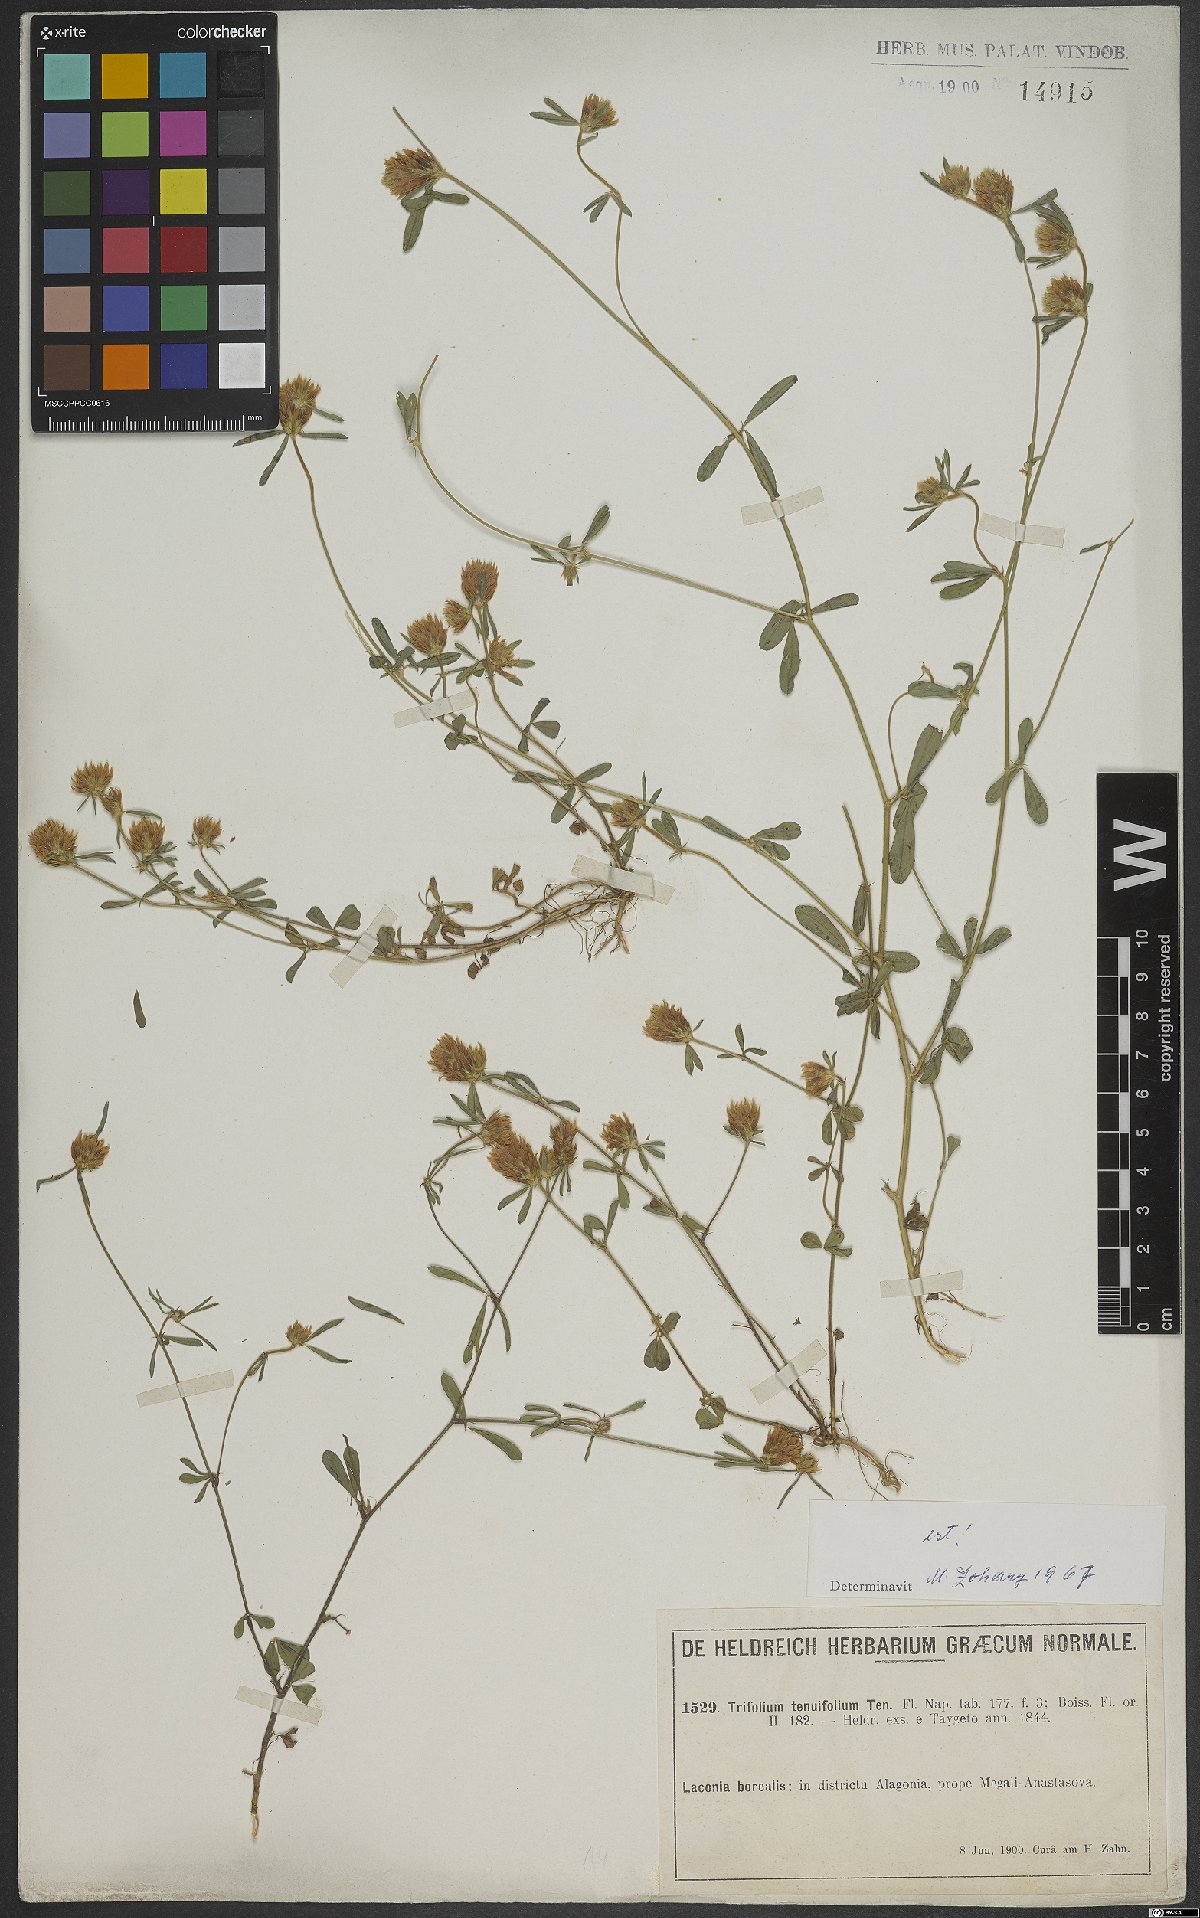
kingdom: Plantae
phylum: Tracheophyta
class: Magnoliopsida
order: Fabales
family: Fabaceae
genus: Trifolium
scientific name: Trifolium tenuifolium
